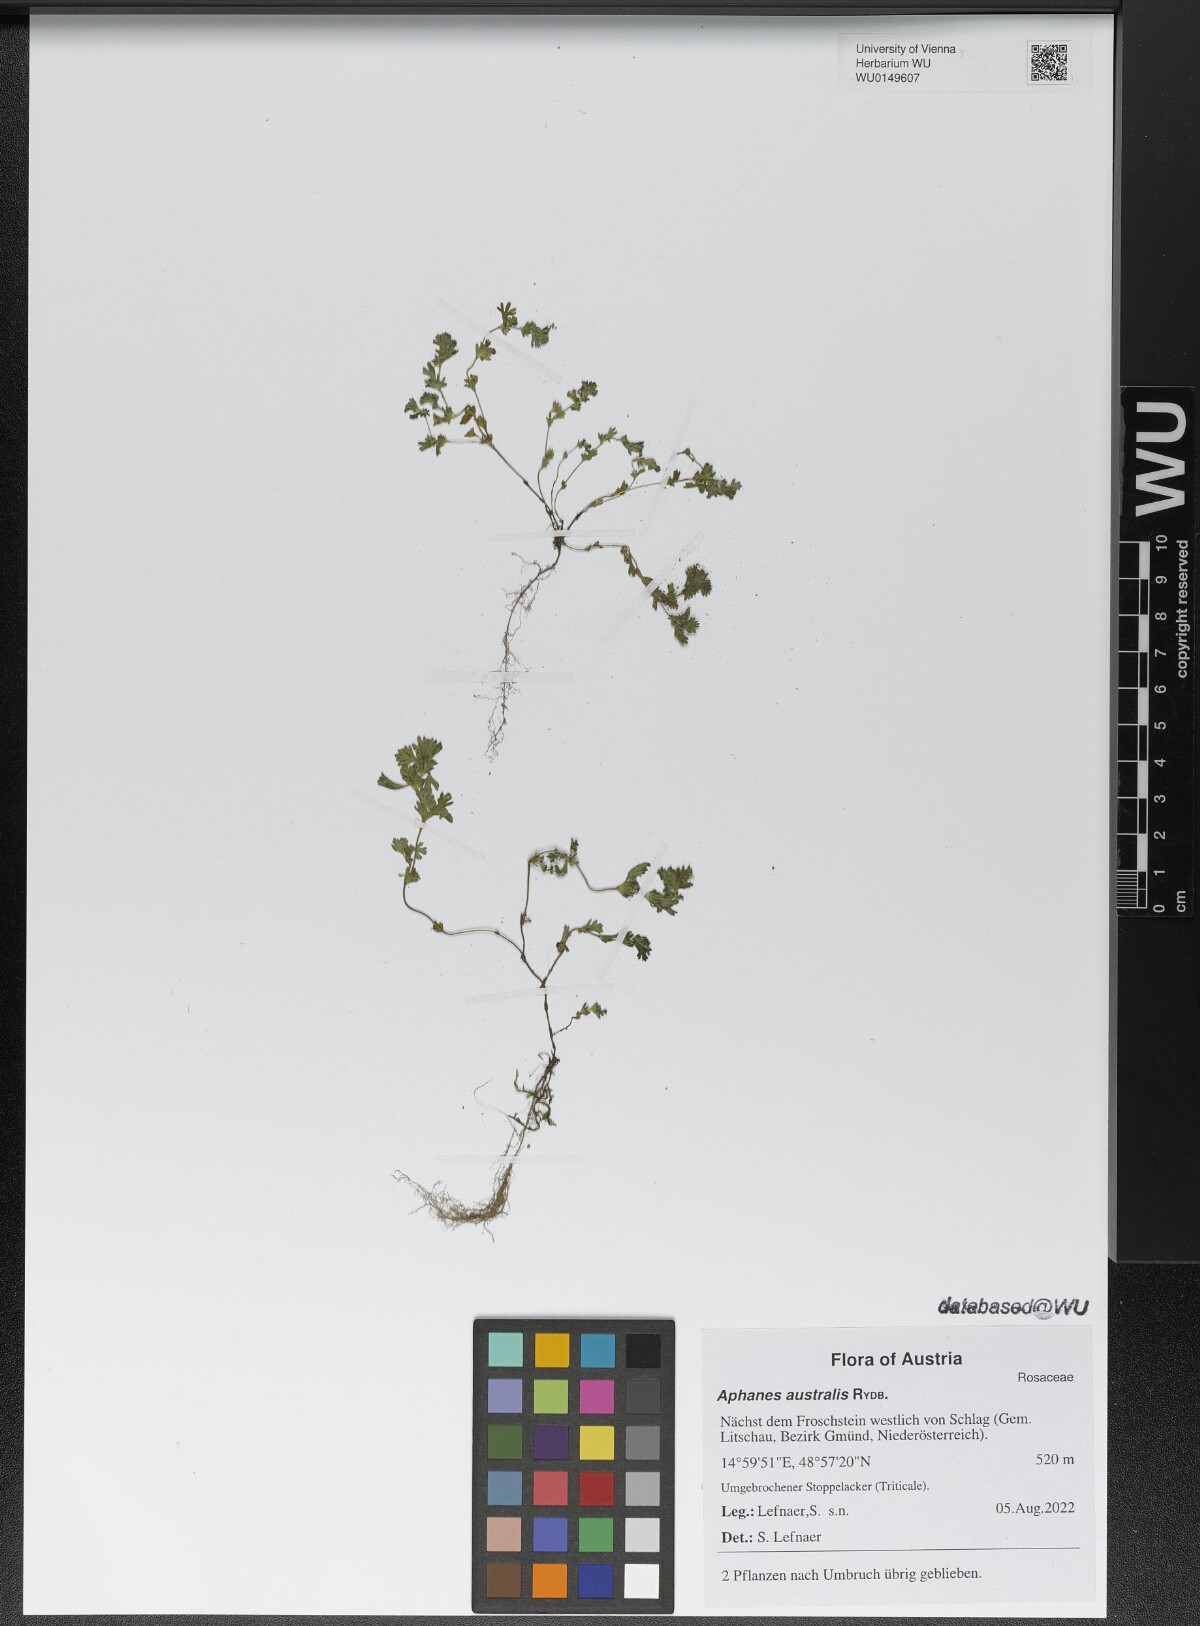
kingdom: Plantae
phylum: Tracheophyta
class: Magnoliopsida
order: Rosales
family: Rosaceae
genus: Aphanes
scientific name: Aphanes australis
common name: Slender parsley-piert
